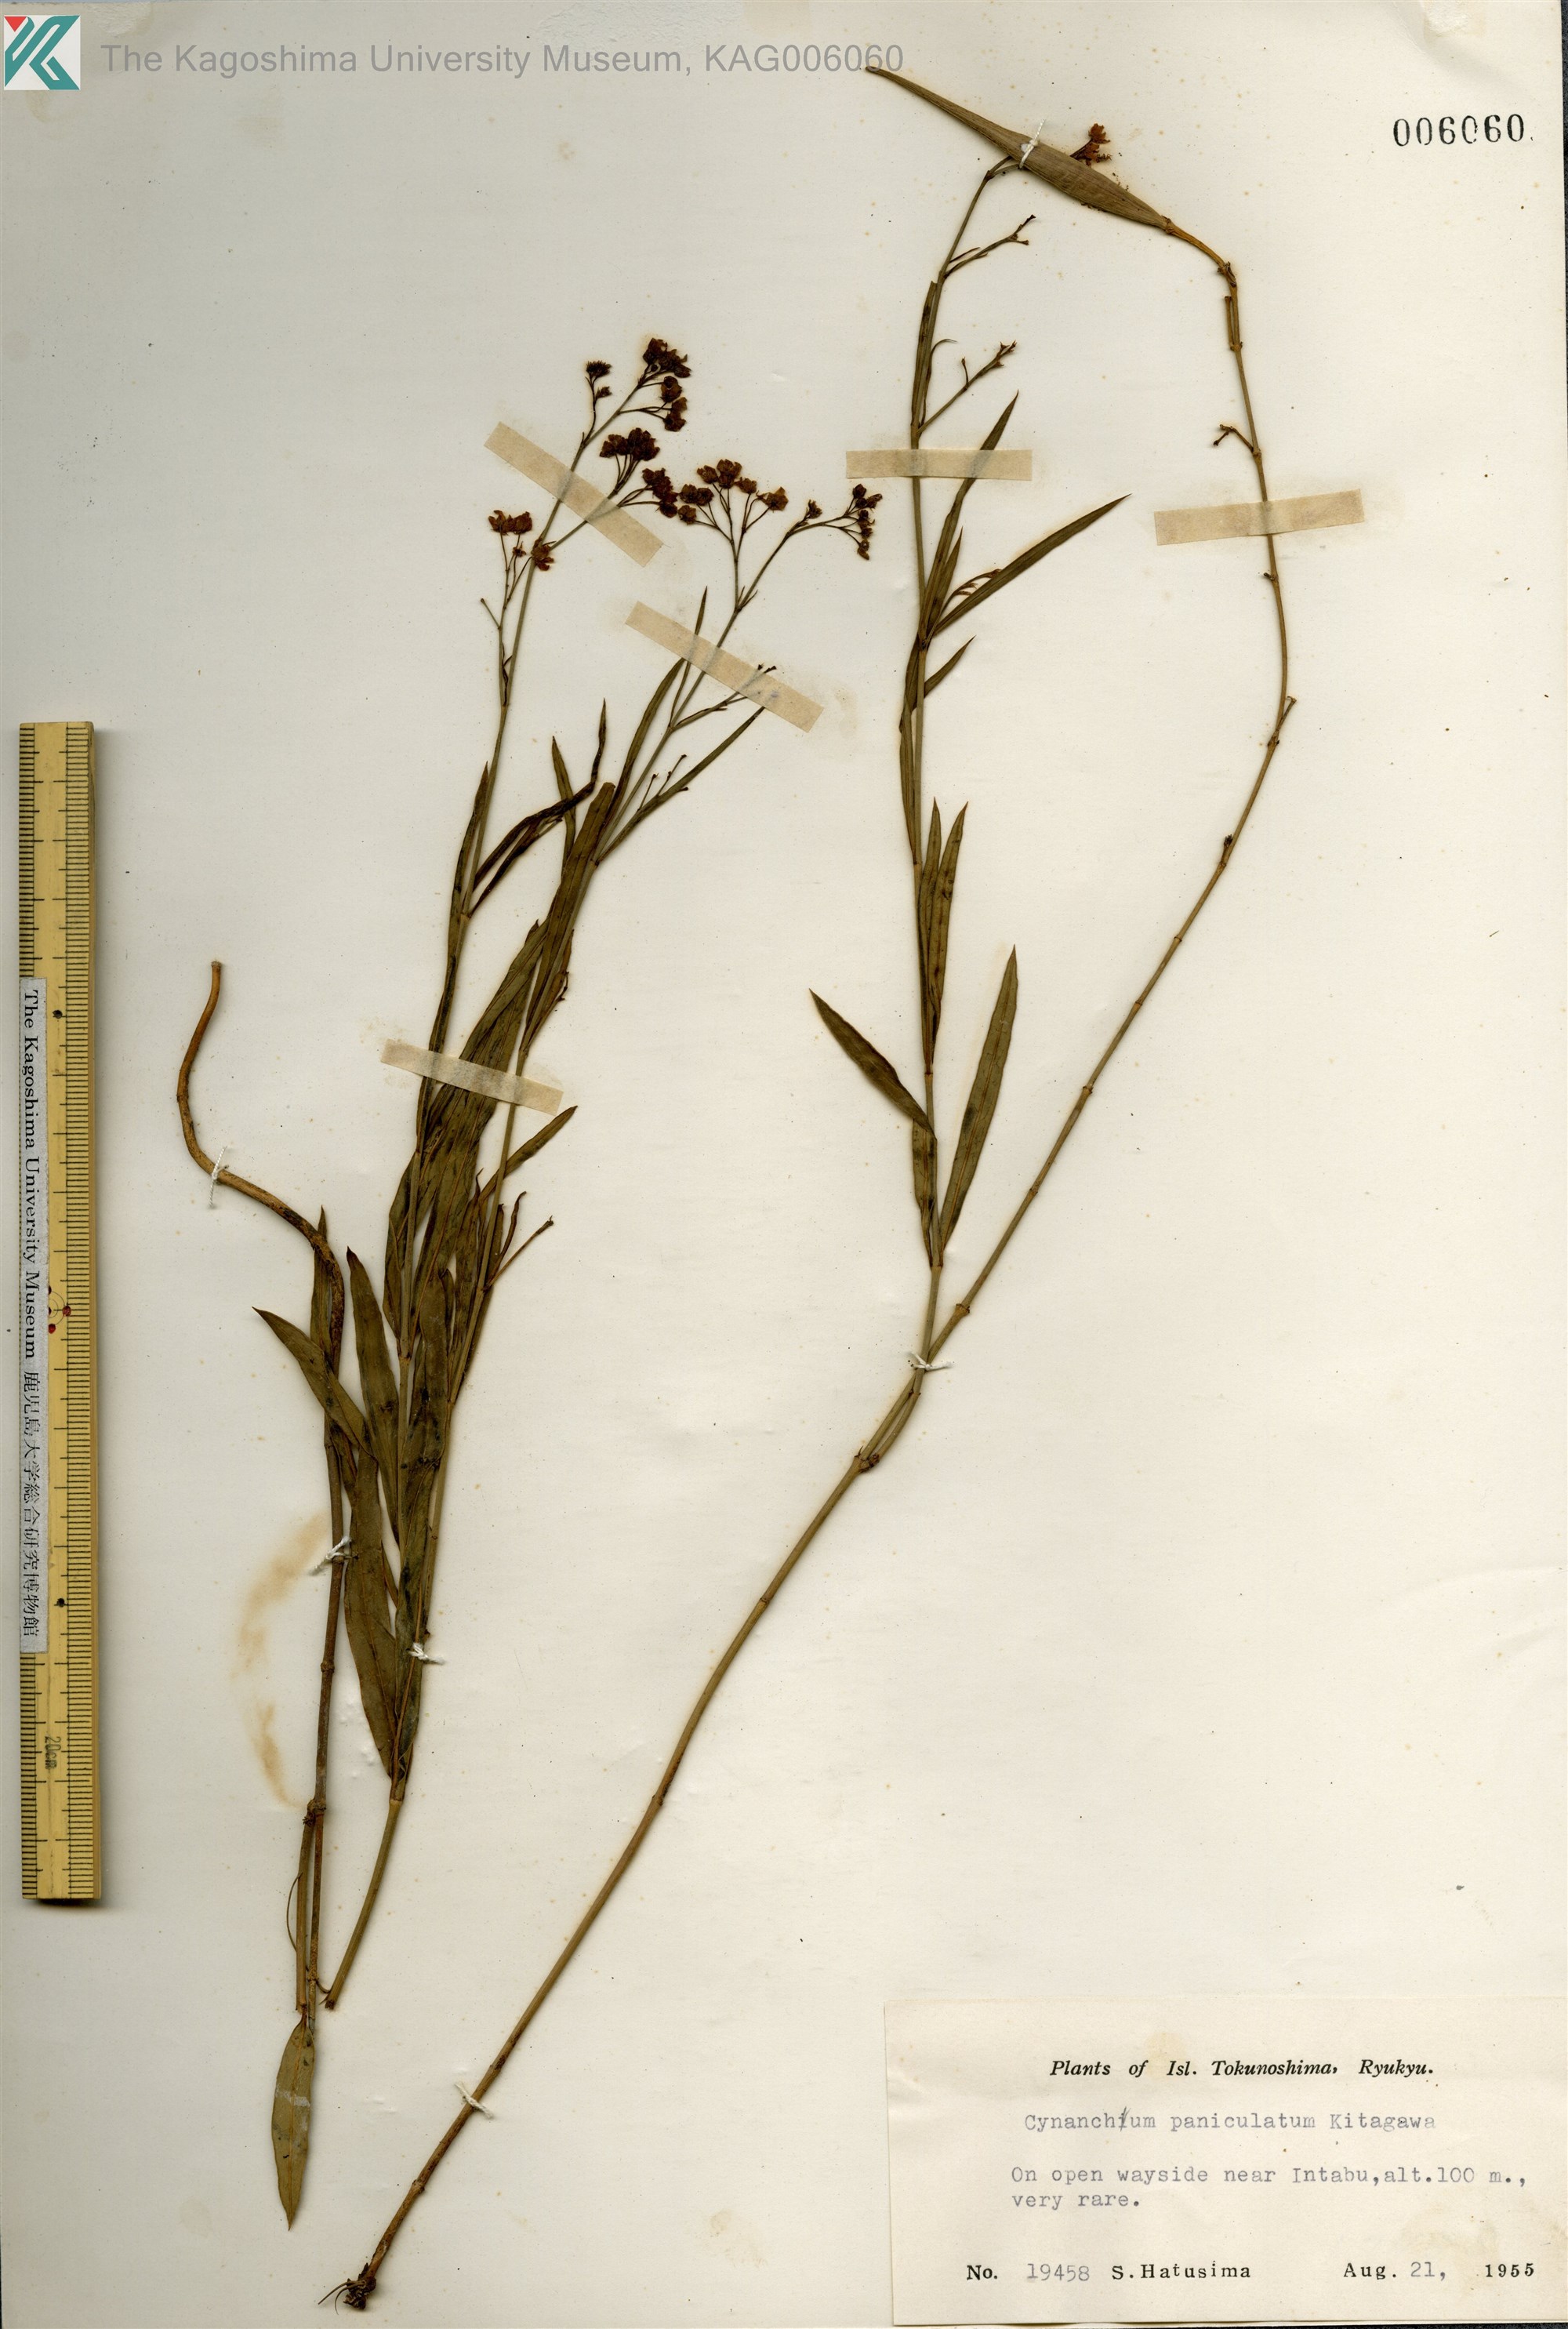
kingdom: Plantae
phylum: Tracheophyta
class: Magnoliopsida
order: Gentianales
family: Apocynaceae
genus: Vincetoxicum
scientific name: Vincetoxicum mukdenense
